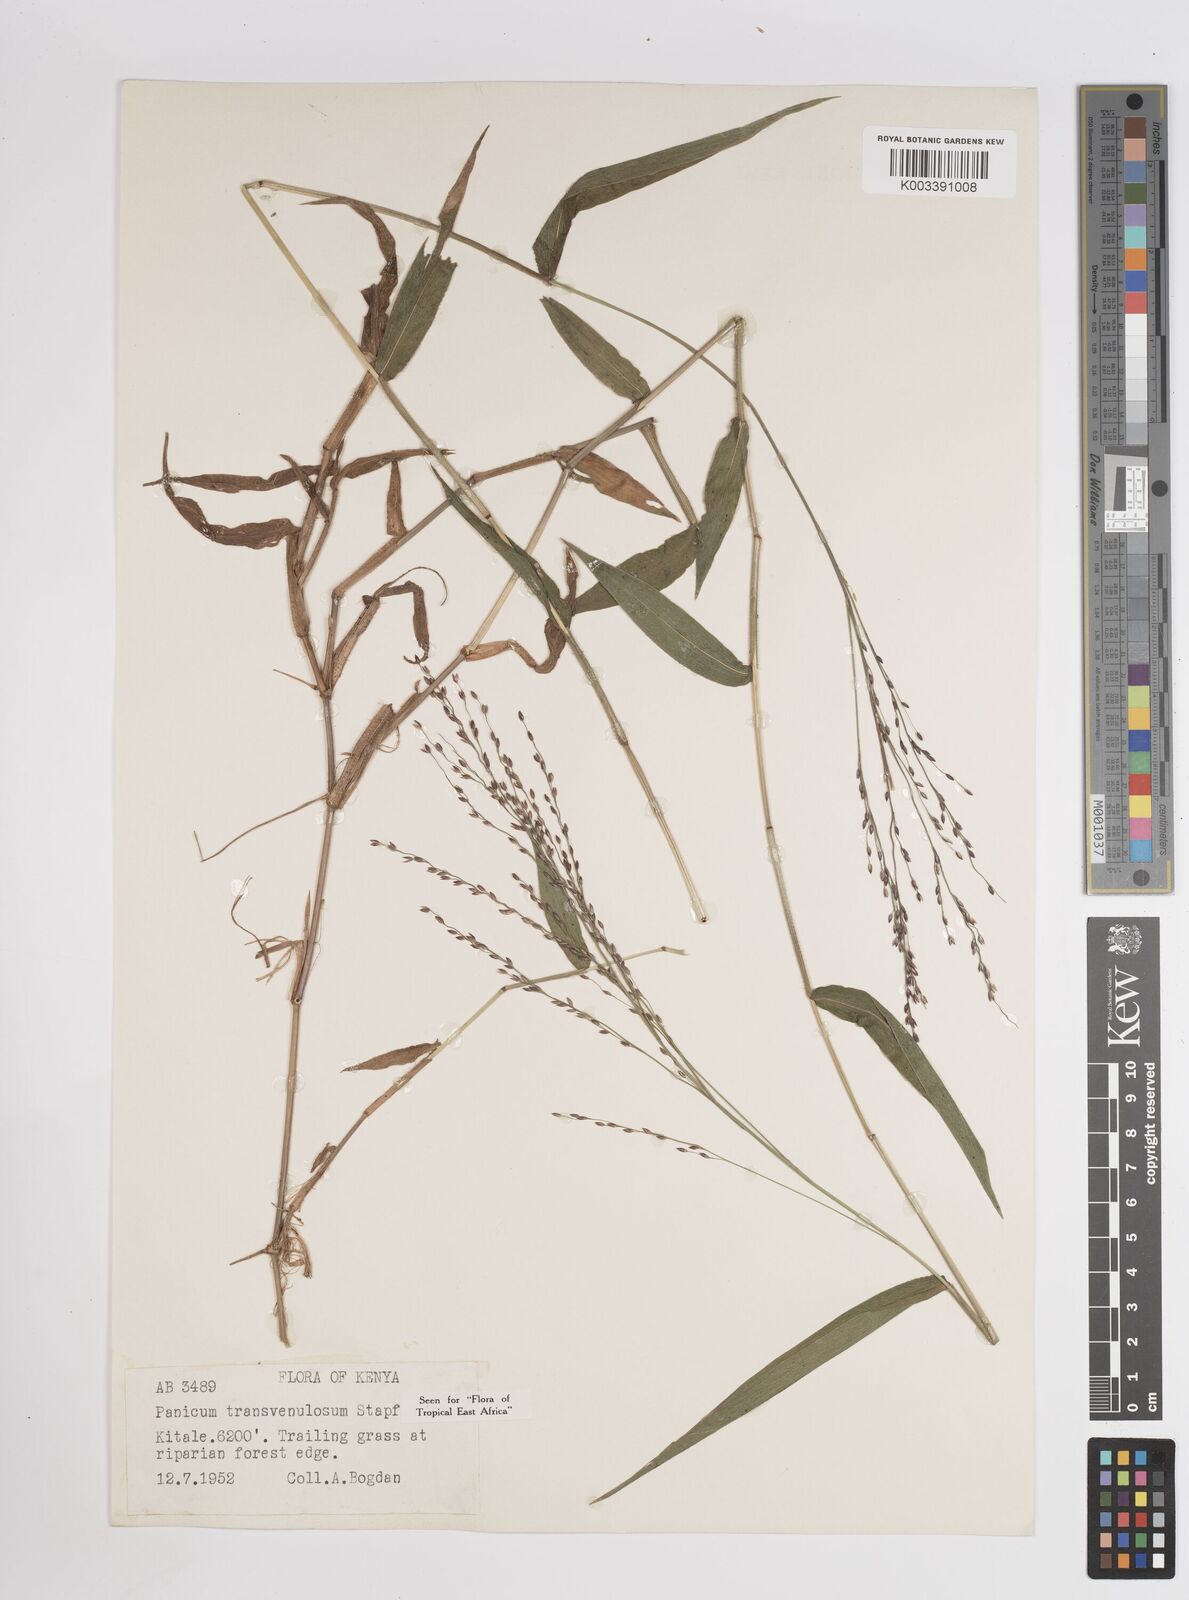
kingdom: Plantae
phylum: Tracheophyta
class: Liliopsida
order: Poales
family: Poaceae
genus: Panicum
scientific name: Panicum monticola
